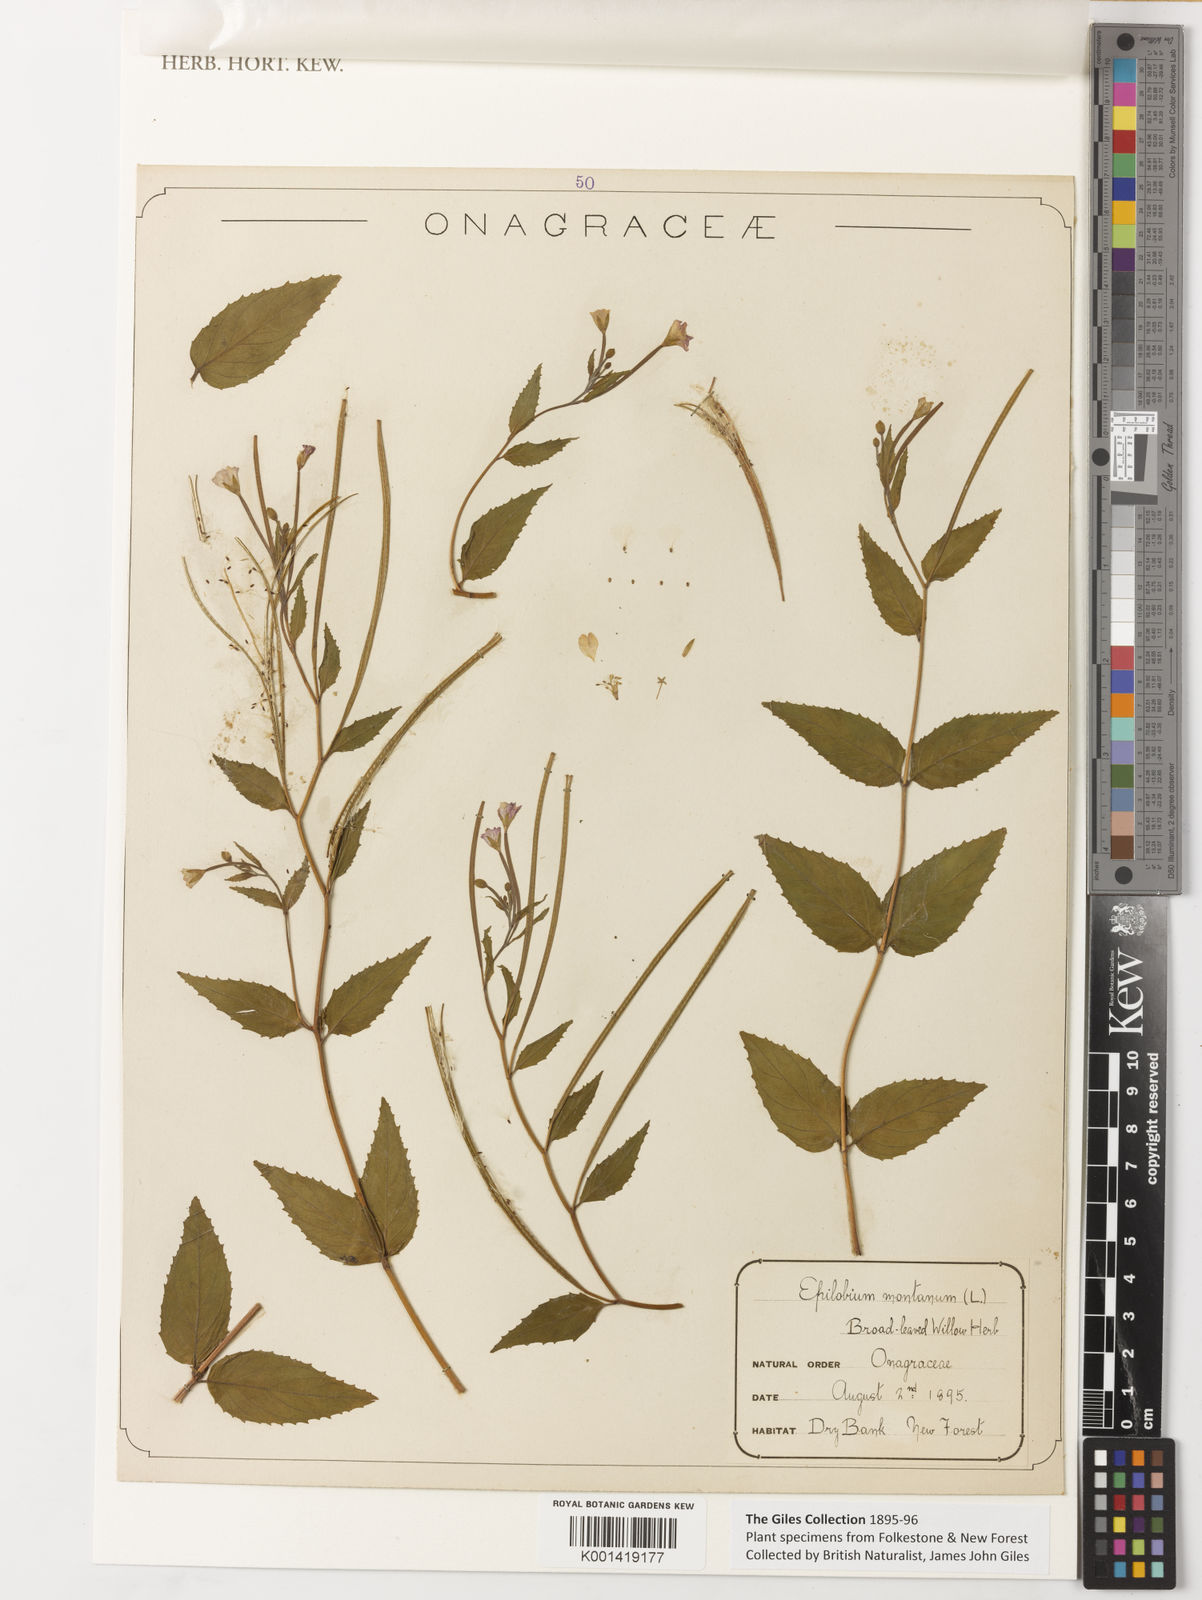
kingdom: Plantae
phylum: Tracheophyta
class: Magnoliopsida
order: Myrtales
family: Onagraceae
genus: Epilobium
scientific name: Epilobium montanum
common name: Broad-leaved willowherb
